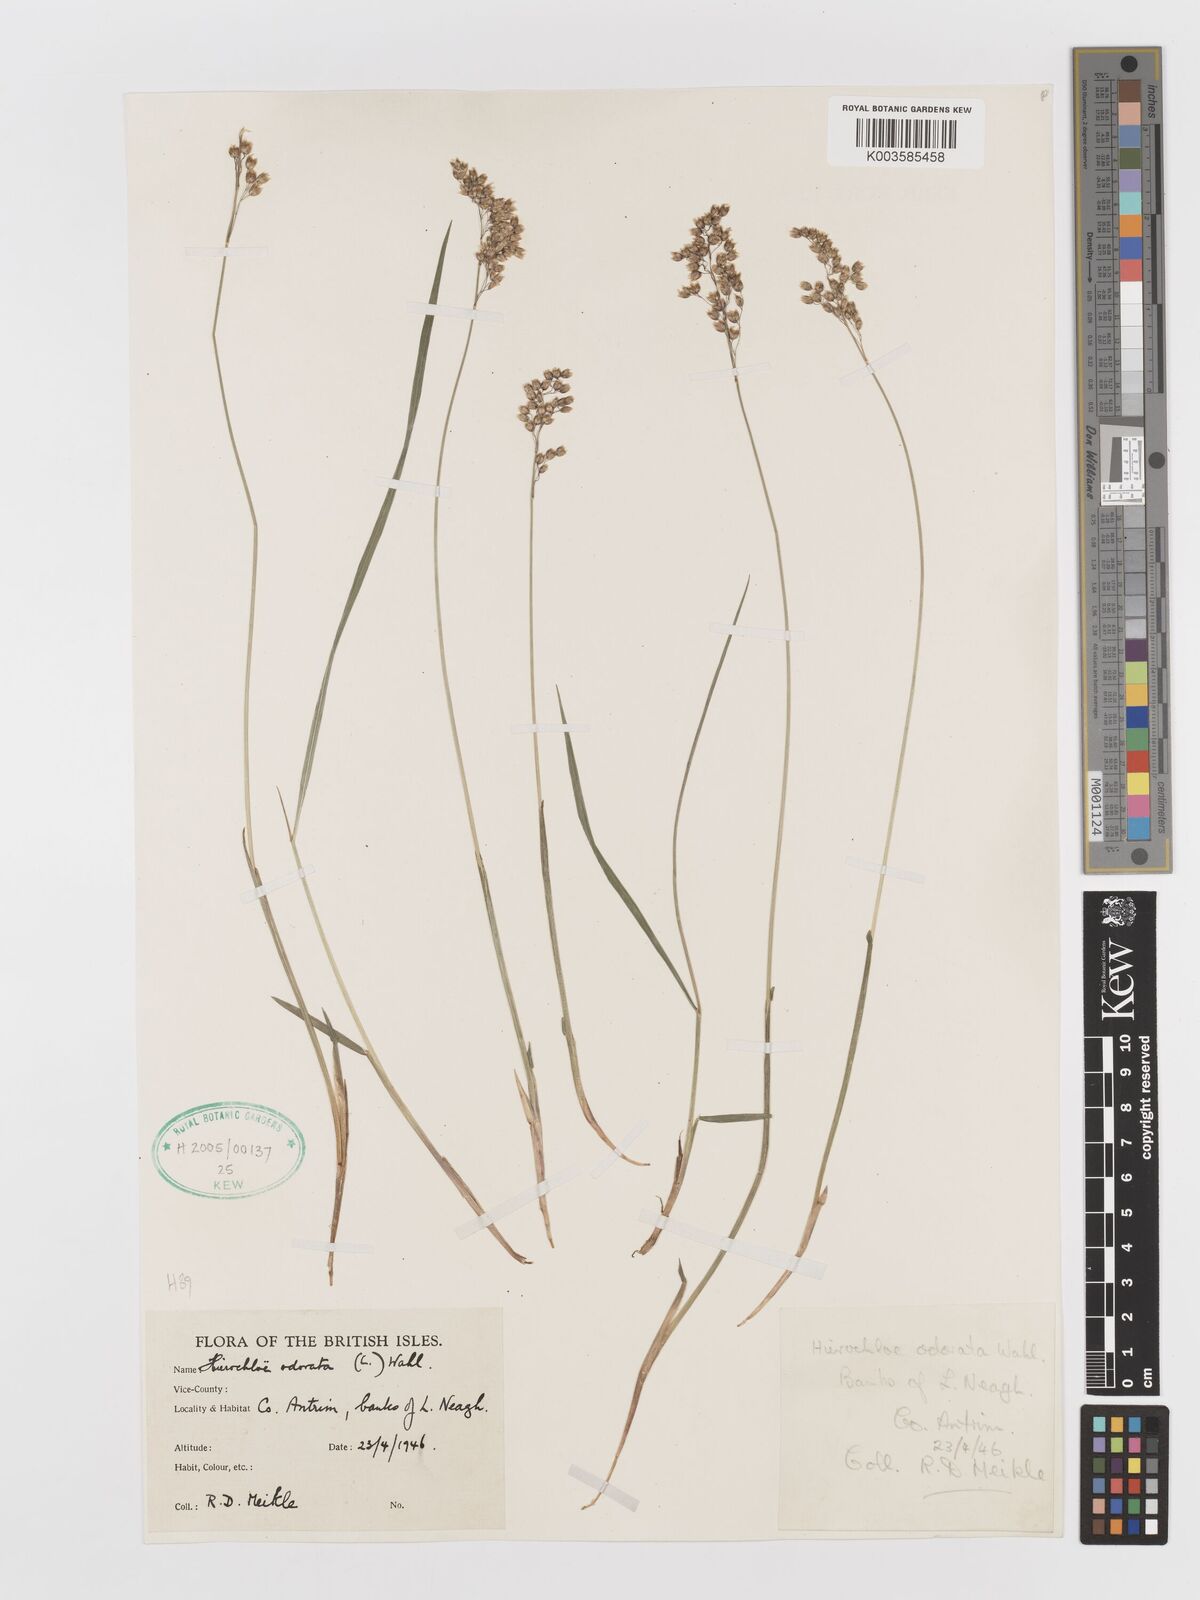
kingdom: Plantae
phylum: Tracheophyta
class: Liliopsida
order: Poales
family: Poaceae
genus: Anthoxanthum
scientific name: Anthoxanthum nitens
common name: Holy grass
